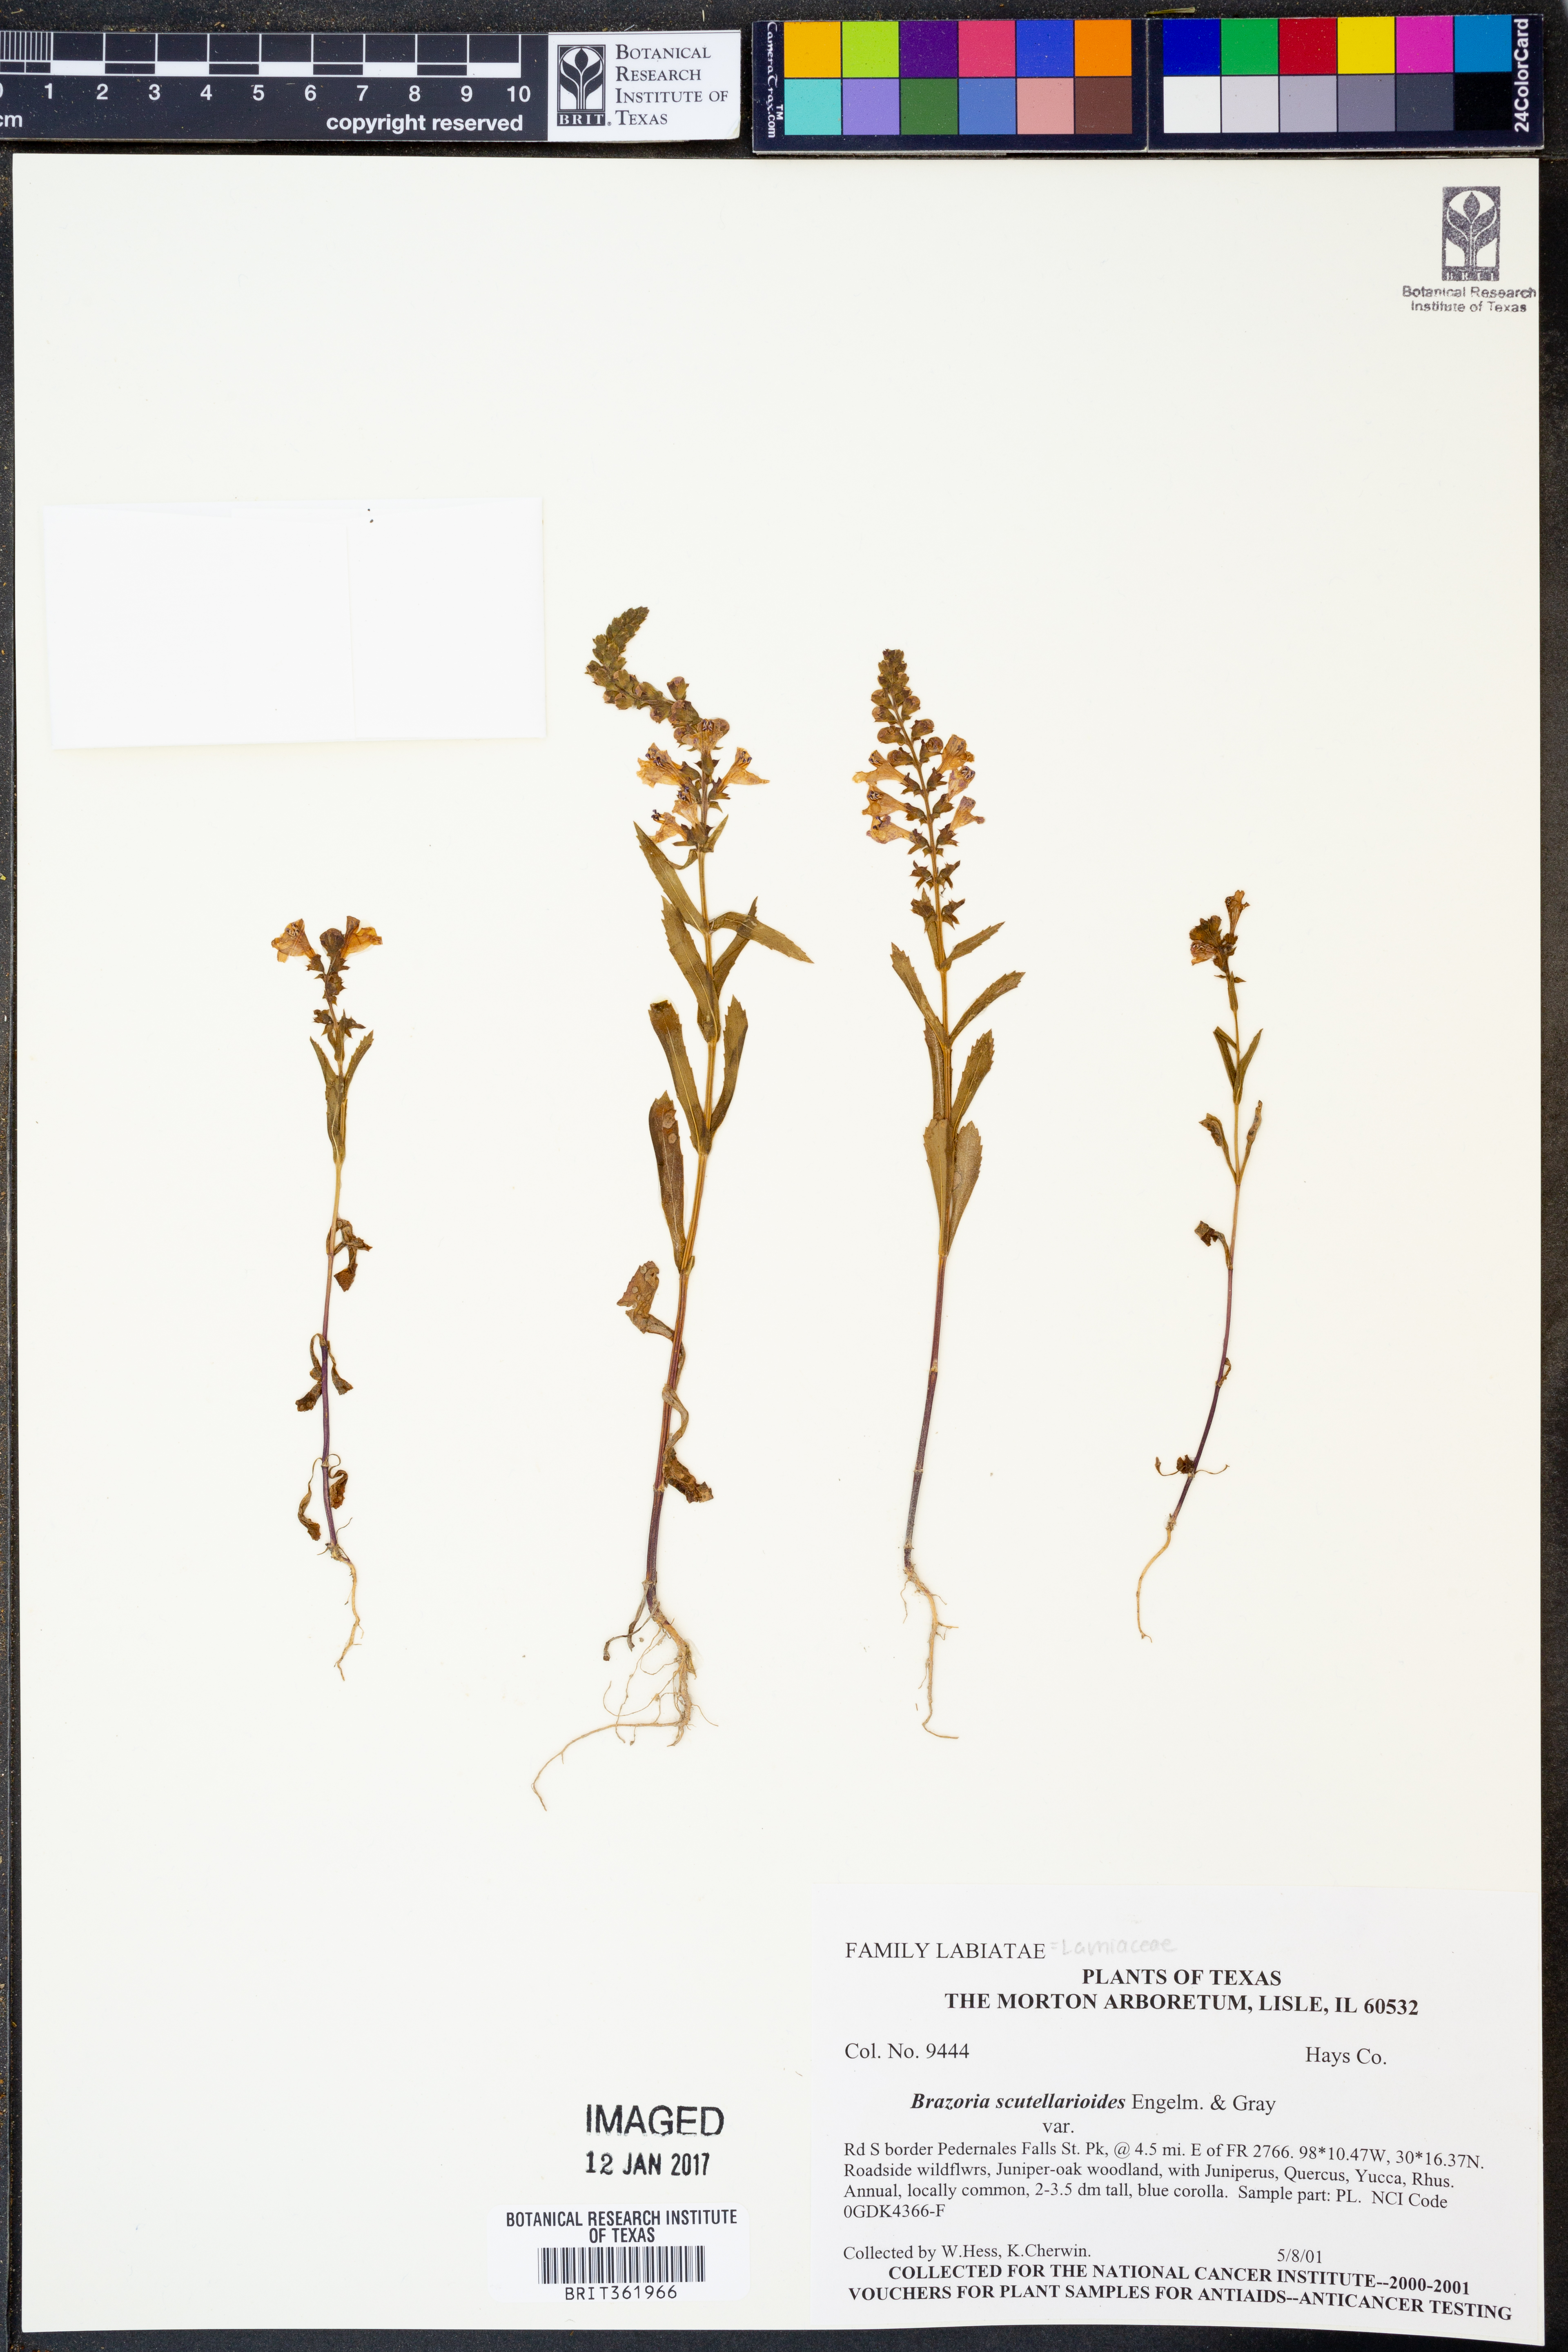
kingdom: Plantae
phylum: Tracheophyta
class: Magnoliopsida
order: Lamiales
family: Lamiaceae
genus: Warnockia
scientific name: Warnockia scutellarioides
